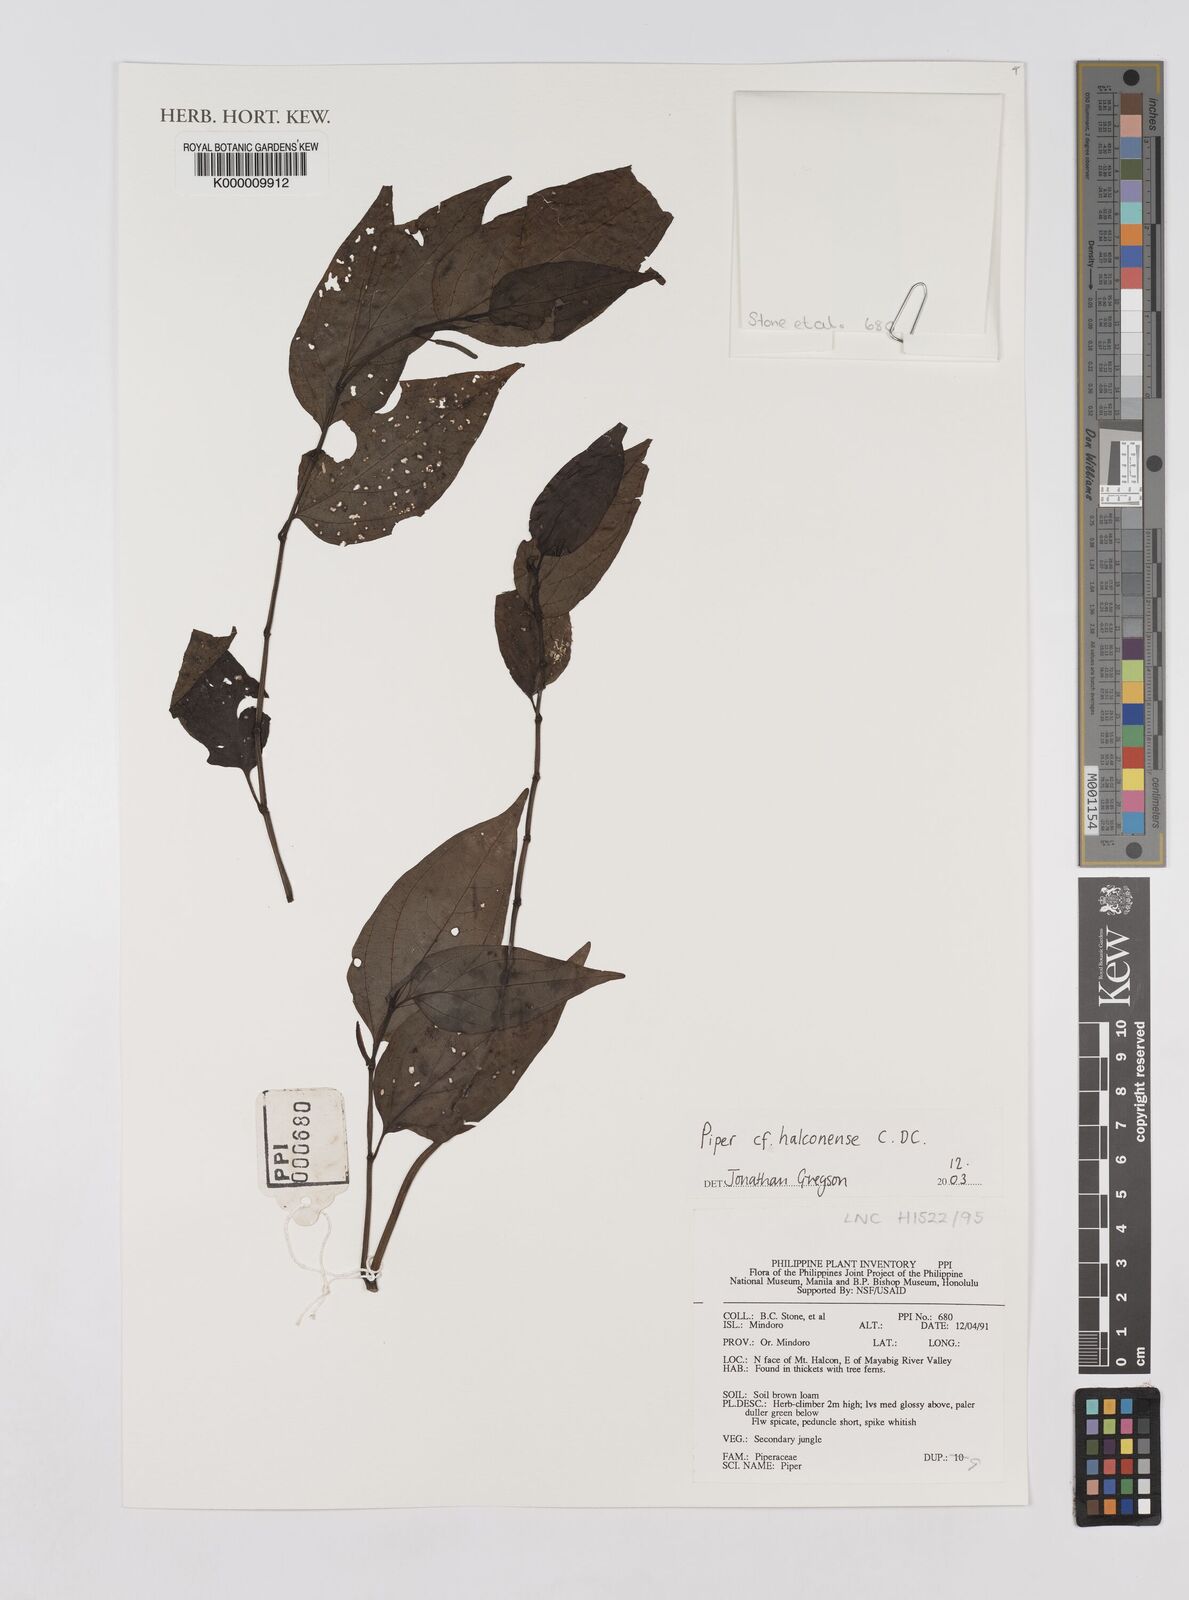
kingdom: Plantae
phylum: Tracheophyta
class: Magnoliopsida
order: Piperales
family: Piperaceae
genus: Piper
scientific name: Piper halconense
